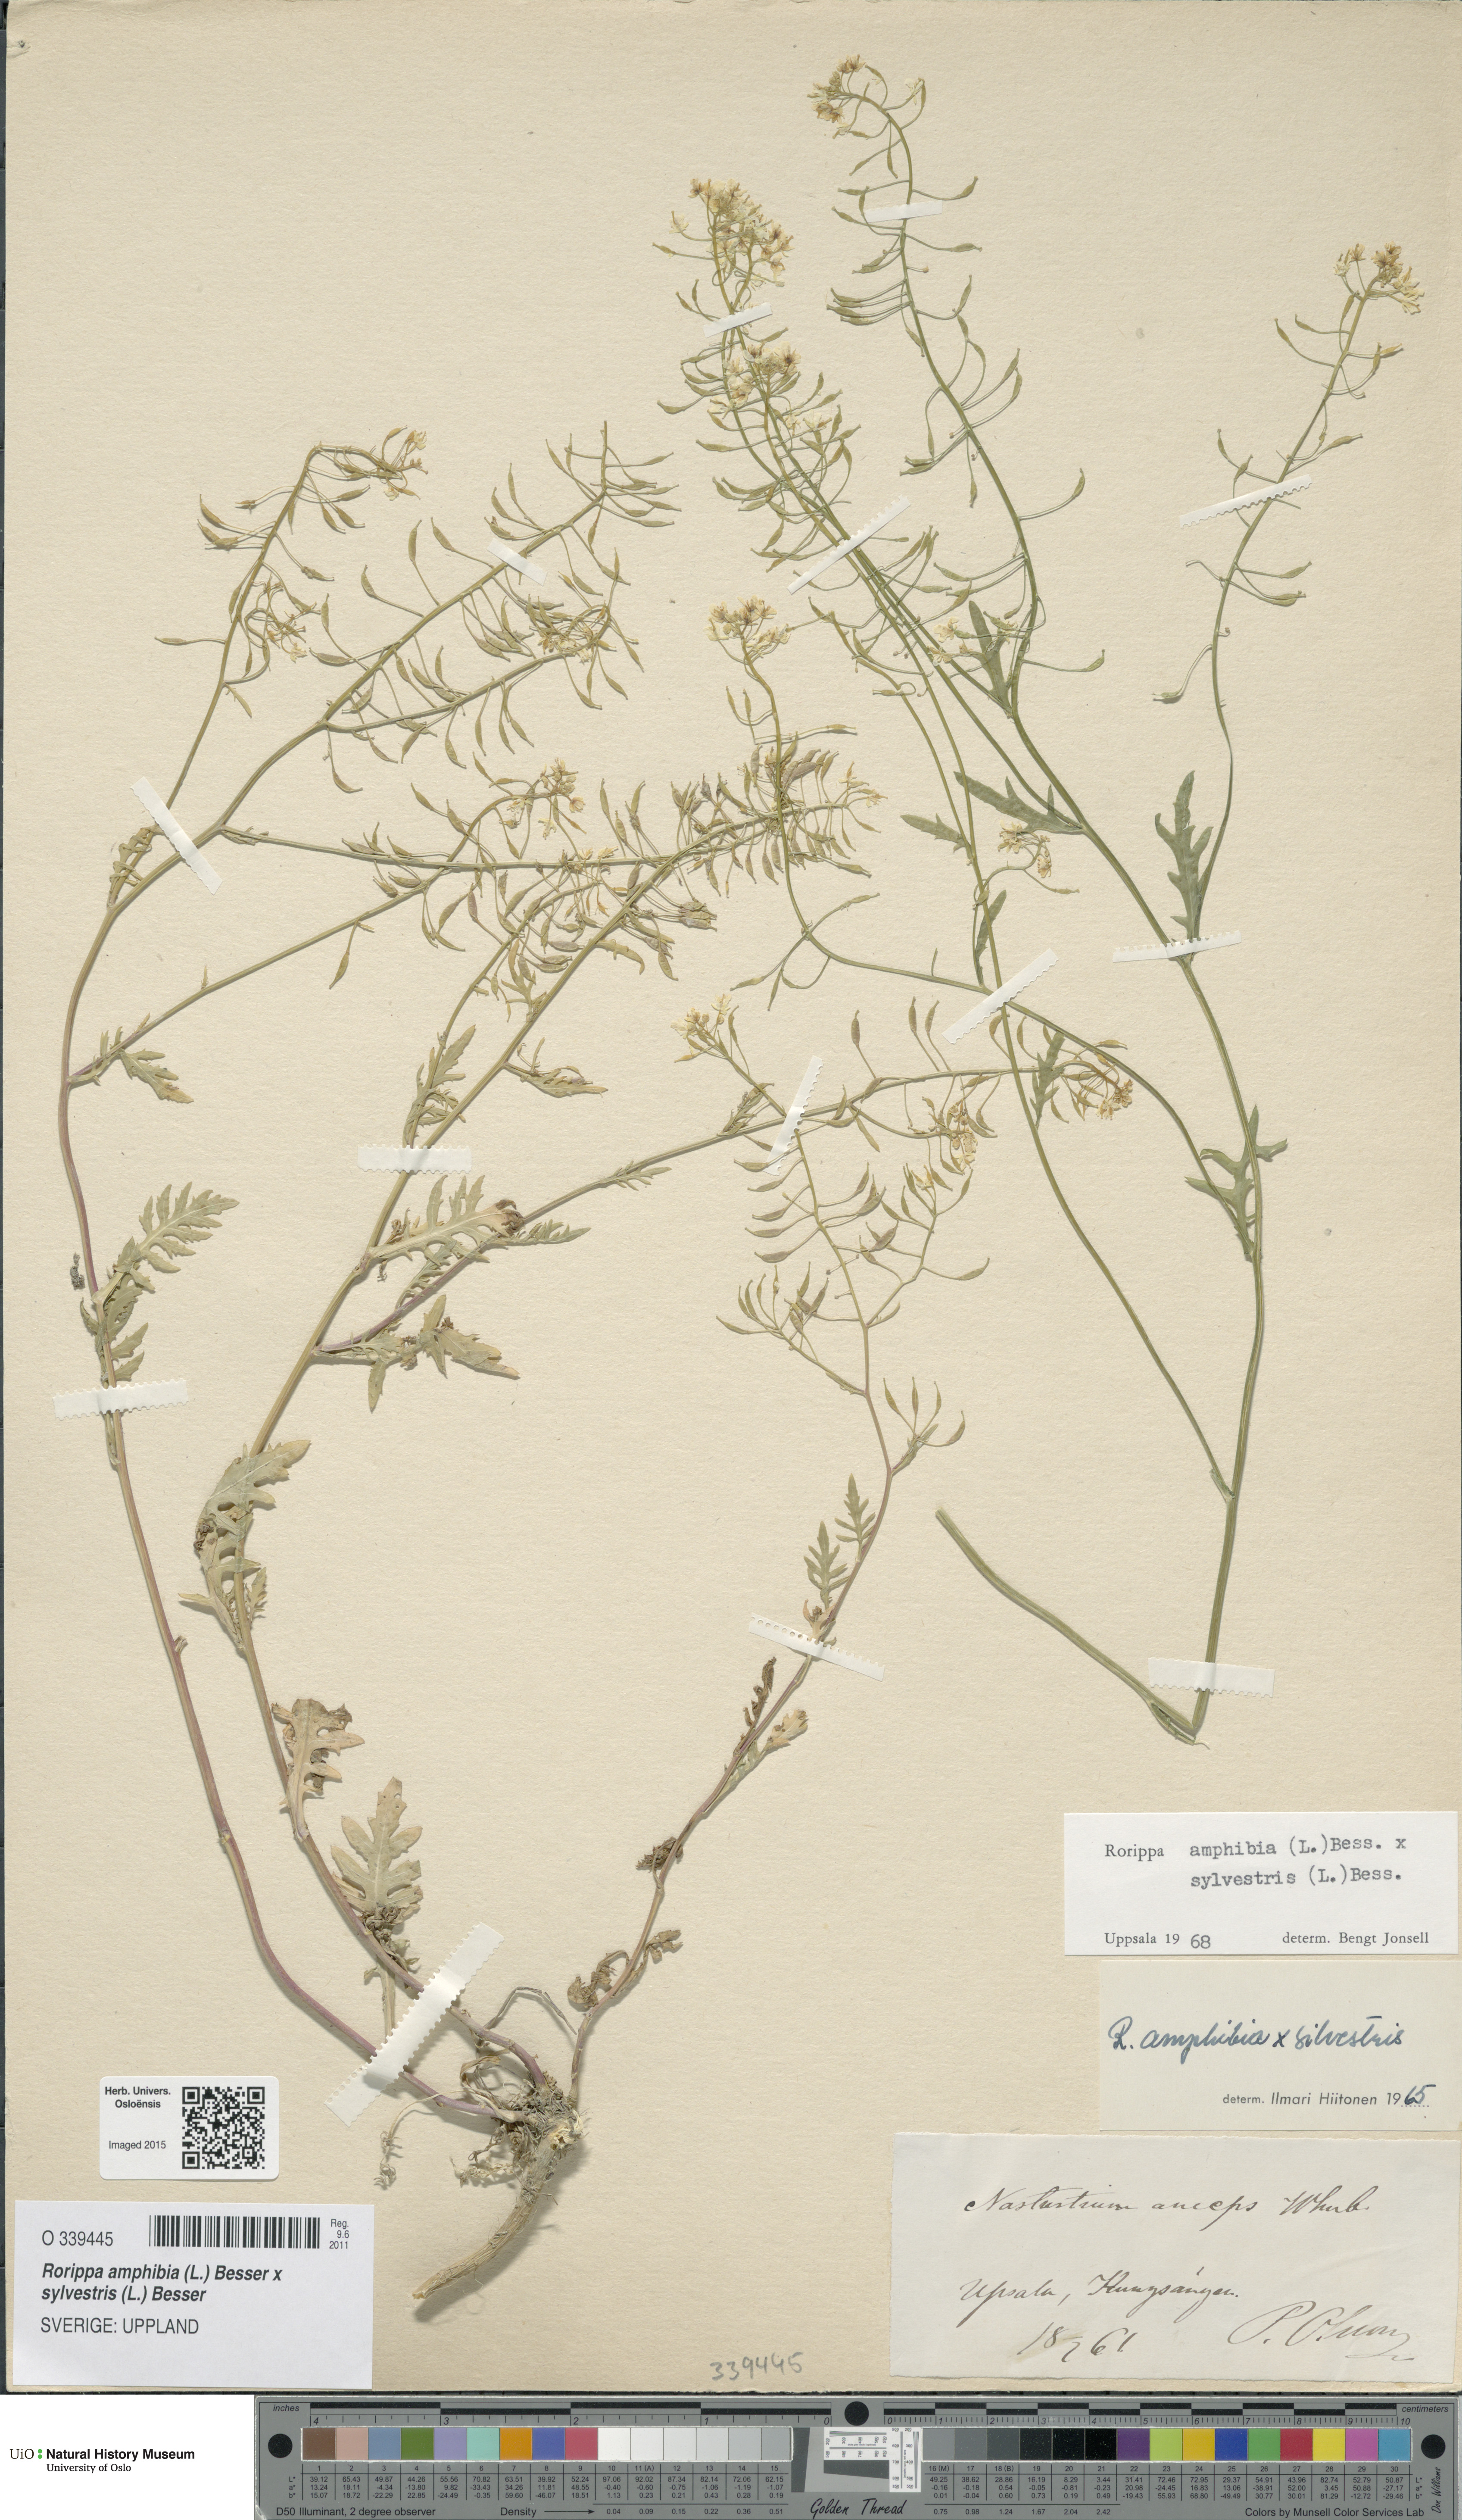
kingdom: Plantae
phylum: Tracheophyta
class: Magnoliopsida
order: Brassicales
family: Brassicaceae
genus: Rorippa
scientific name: Rorippa
